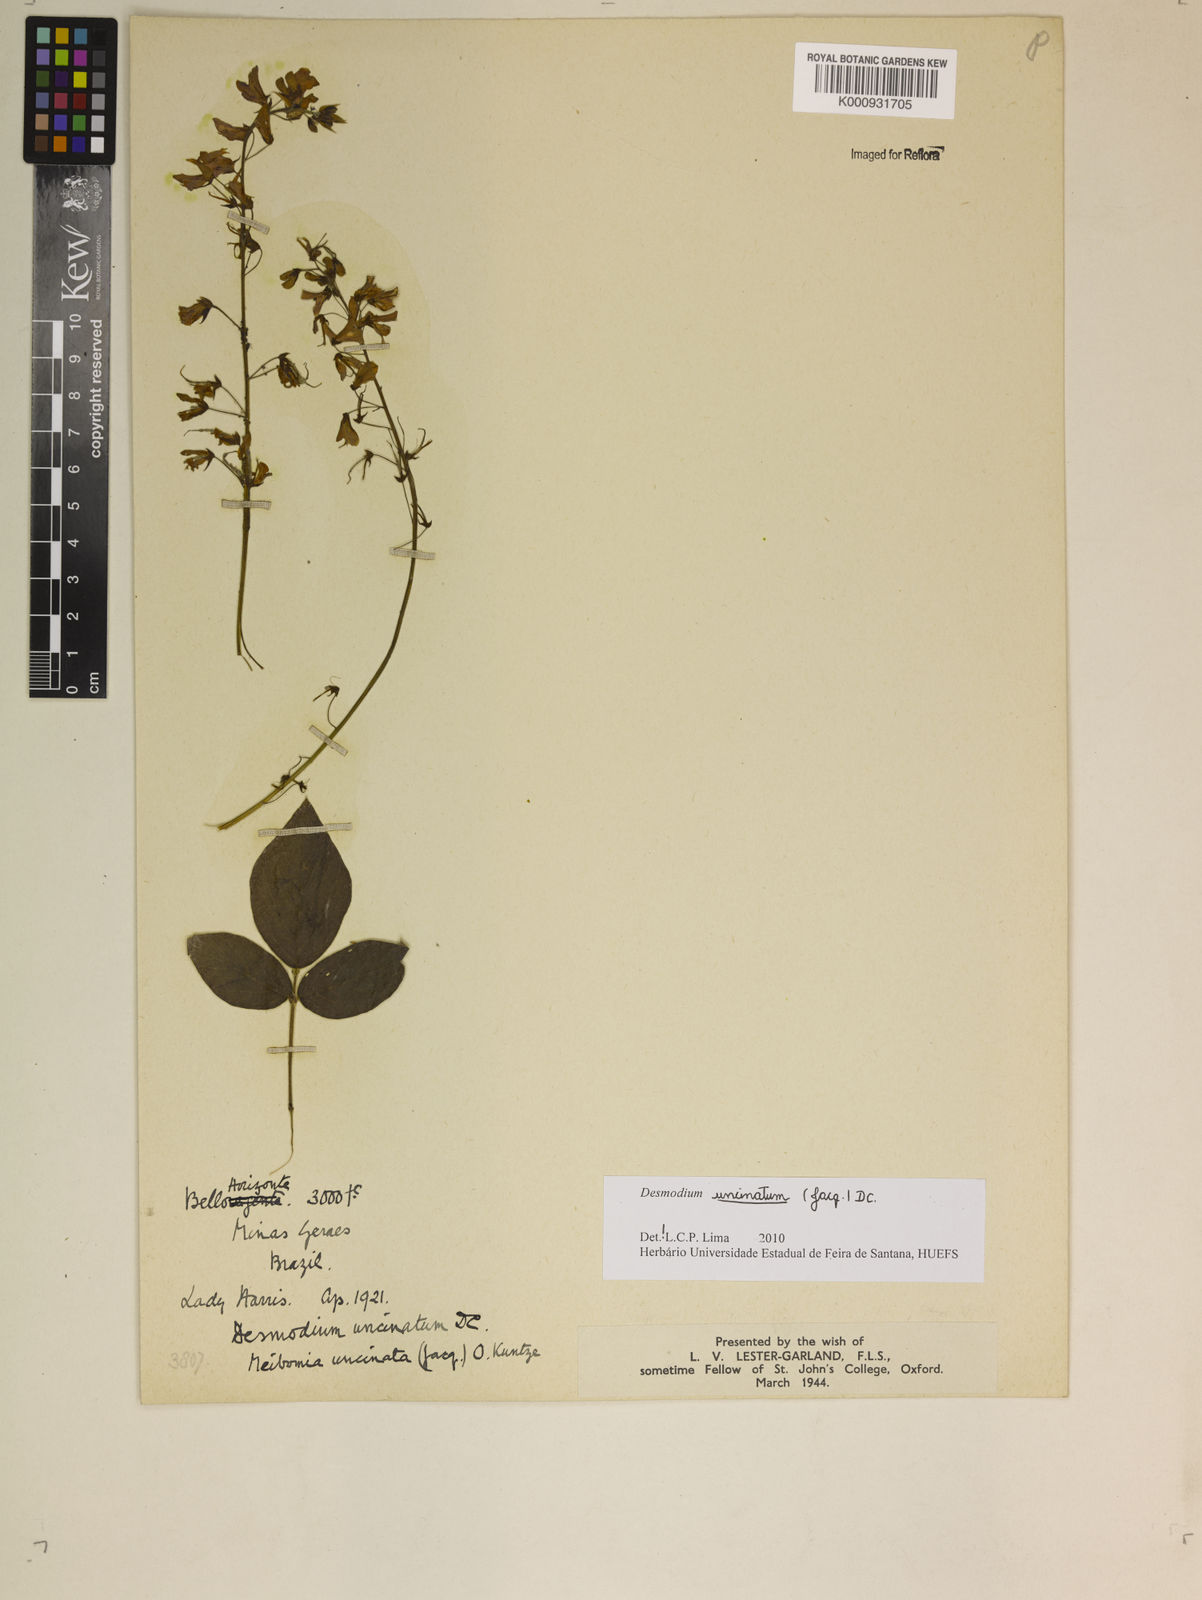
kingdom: Plantae
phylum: Tracheophyta
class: Magnoliopsida
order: Fabales
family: Fabaceae
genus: Desmodium
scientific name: Desmodium uncinatum
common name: Silverleaf desmodium
